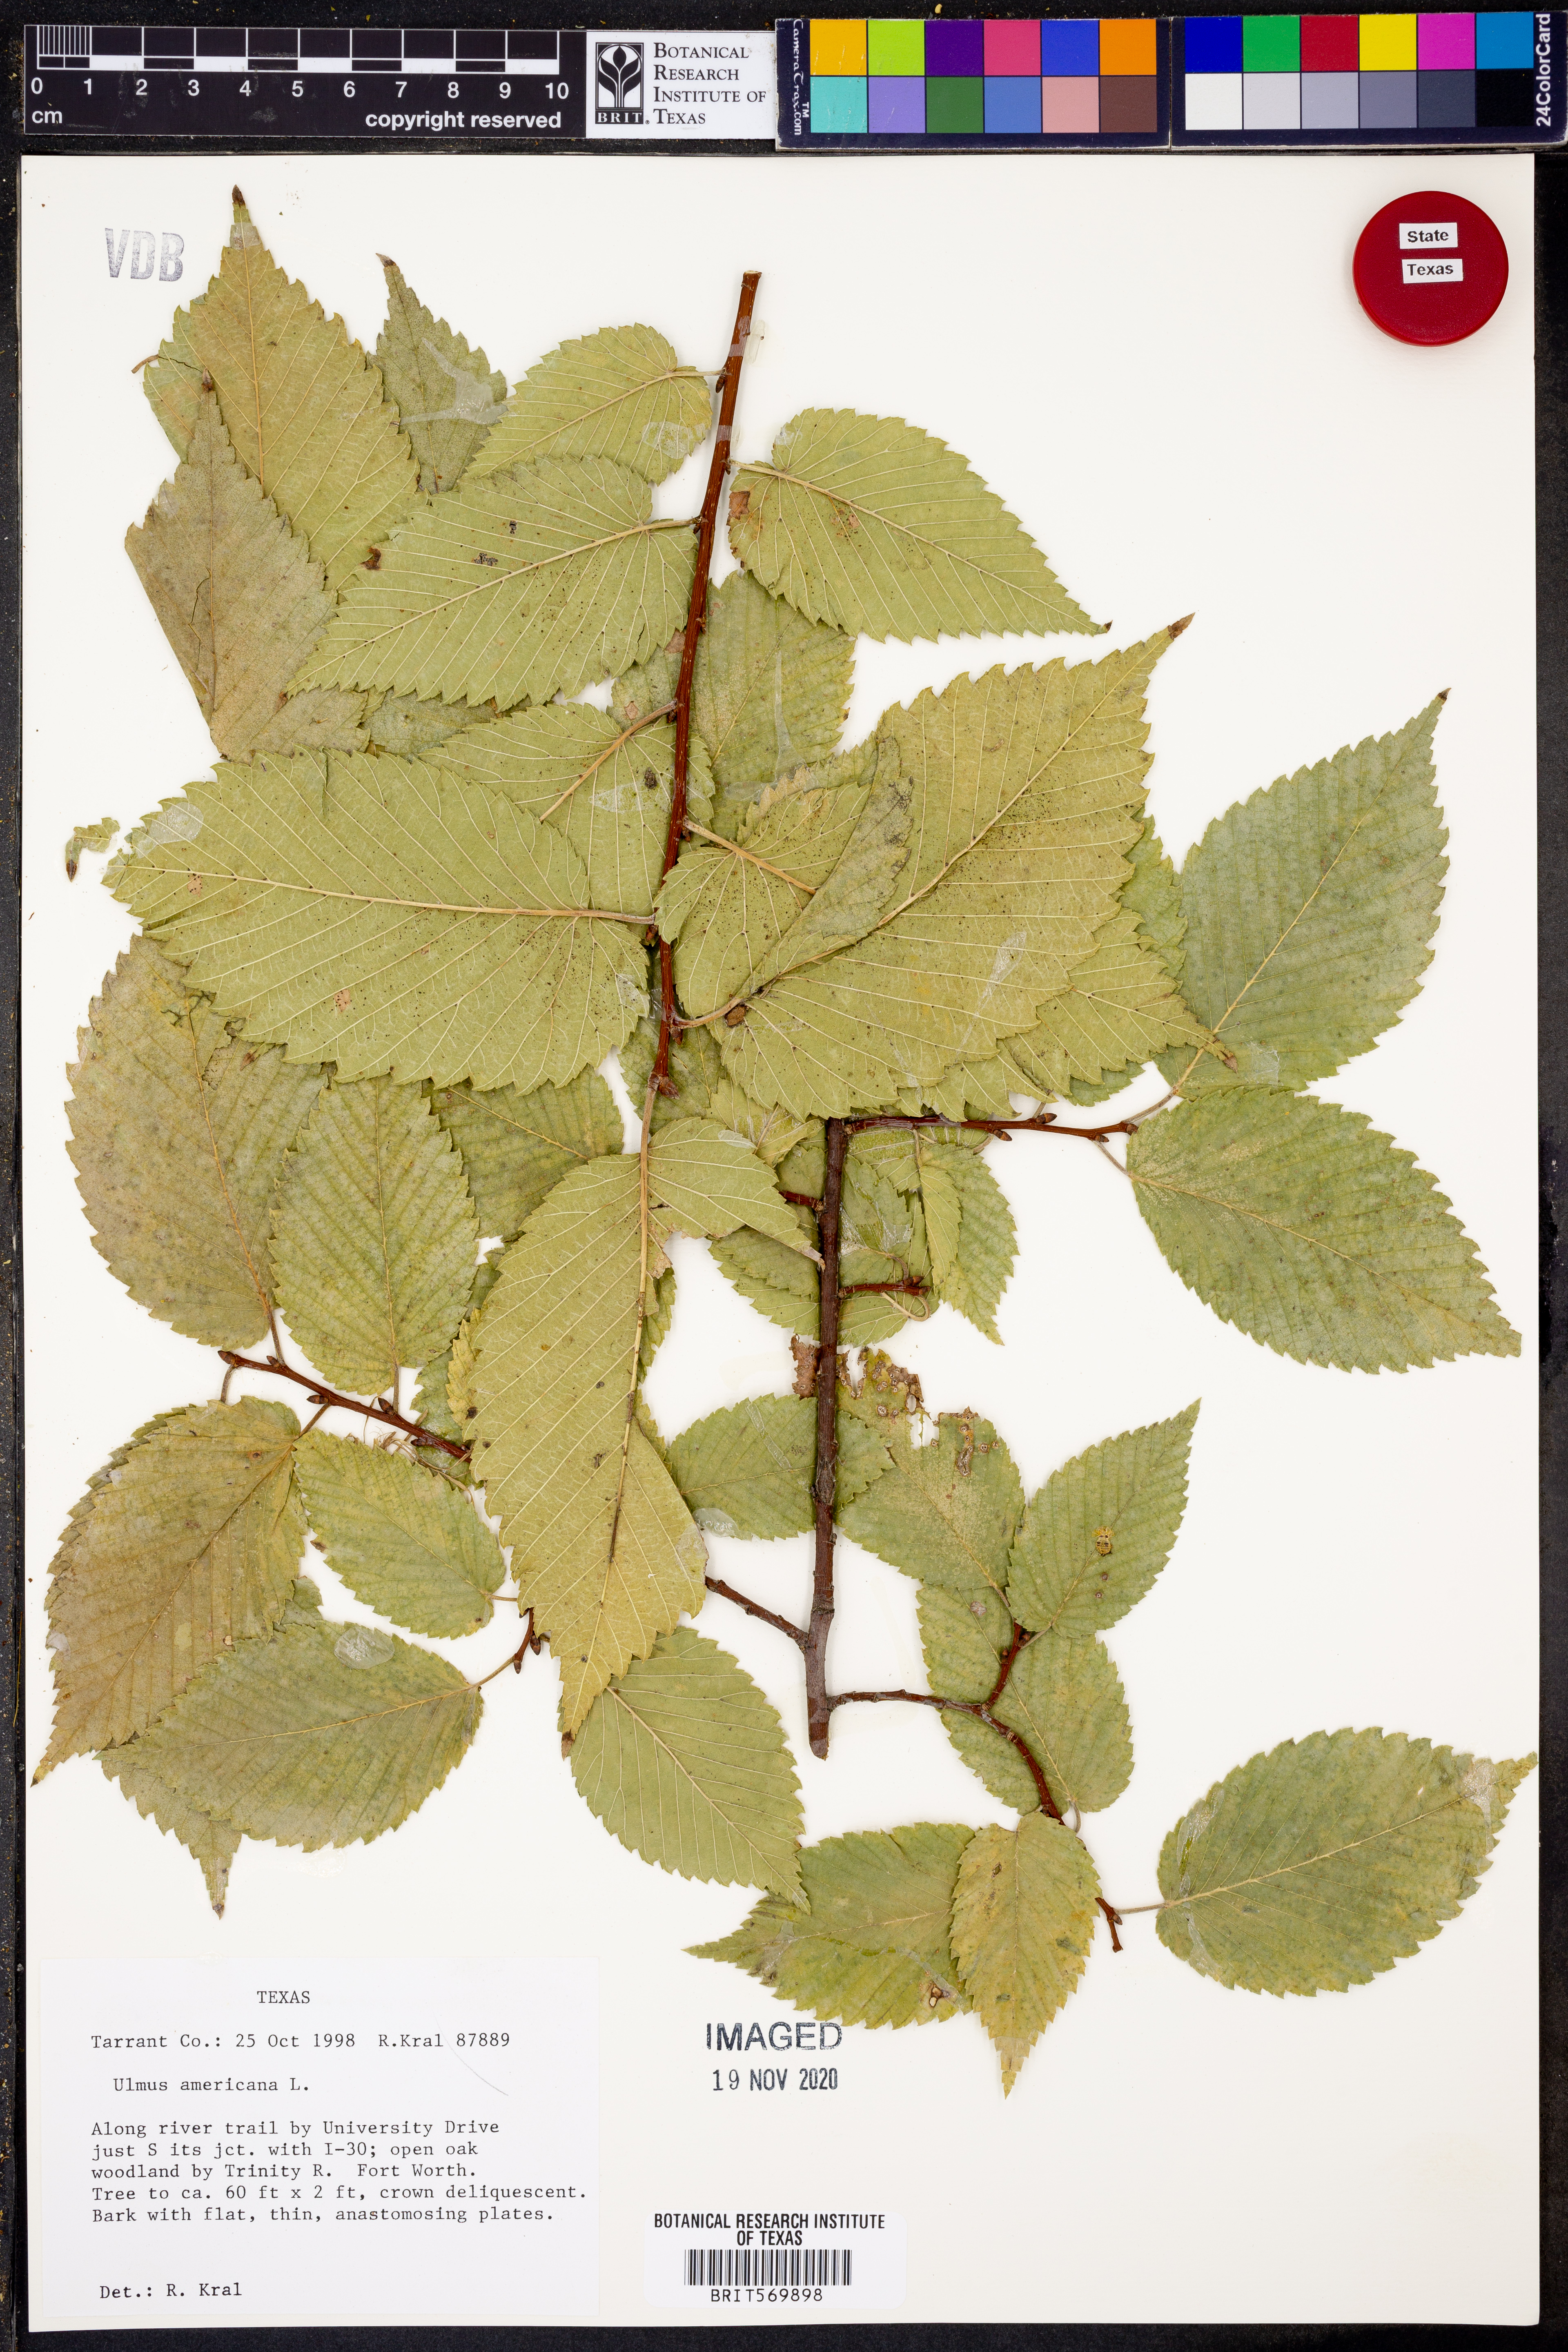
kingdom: Plantae
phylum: Tracheophyta
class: Magnoliopsida
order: Rosales
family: Ulmaceae
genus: Ulmus
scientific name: Ulmus americana
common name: American elm
